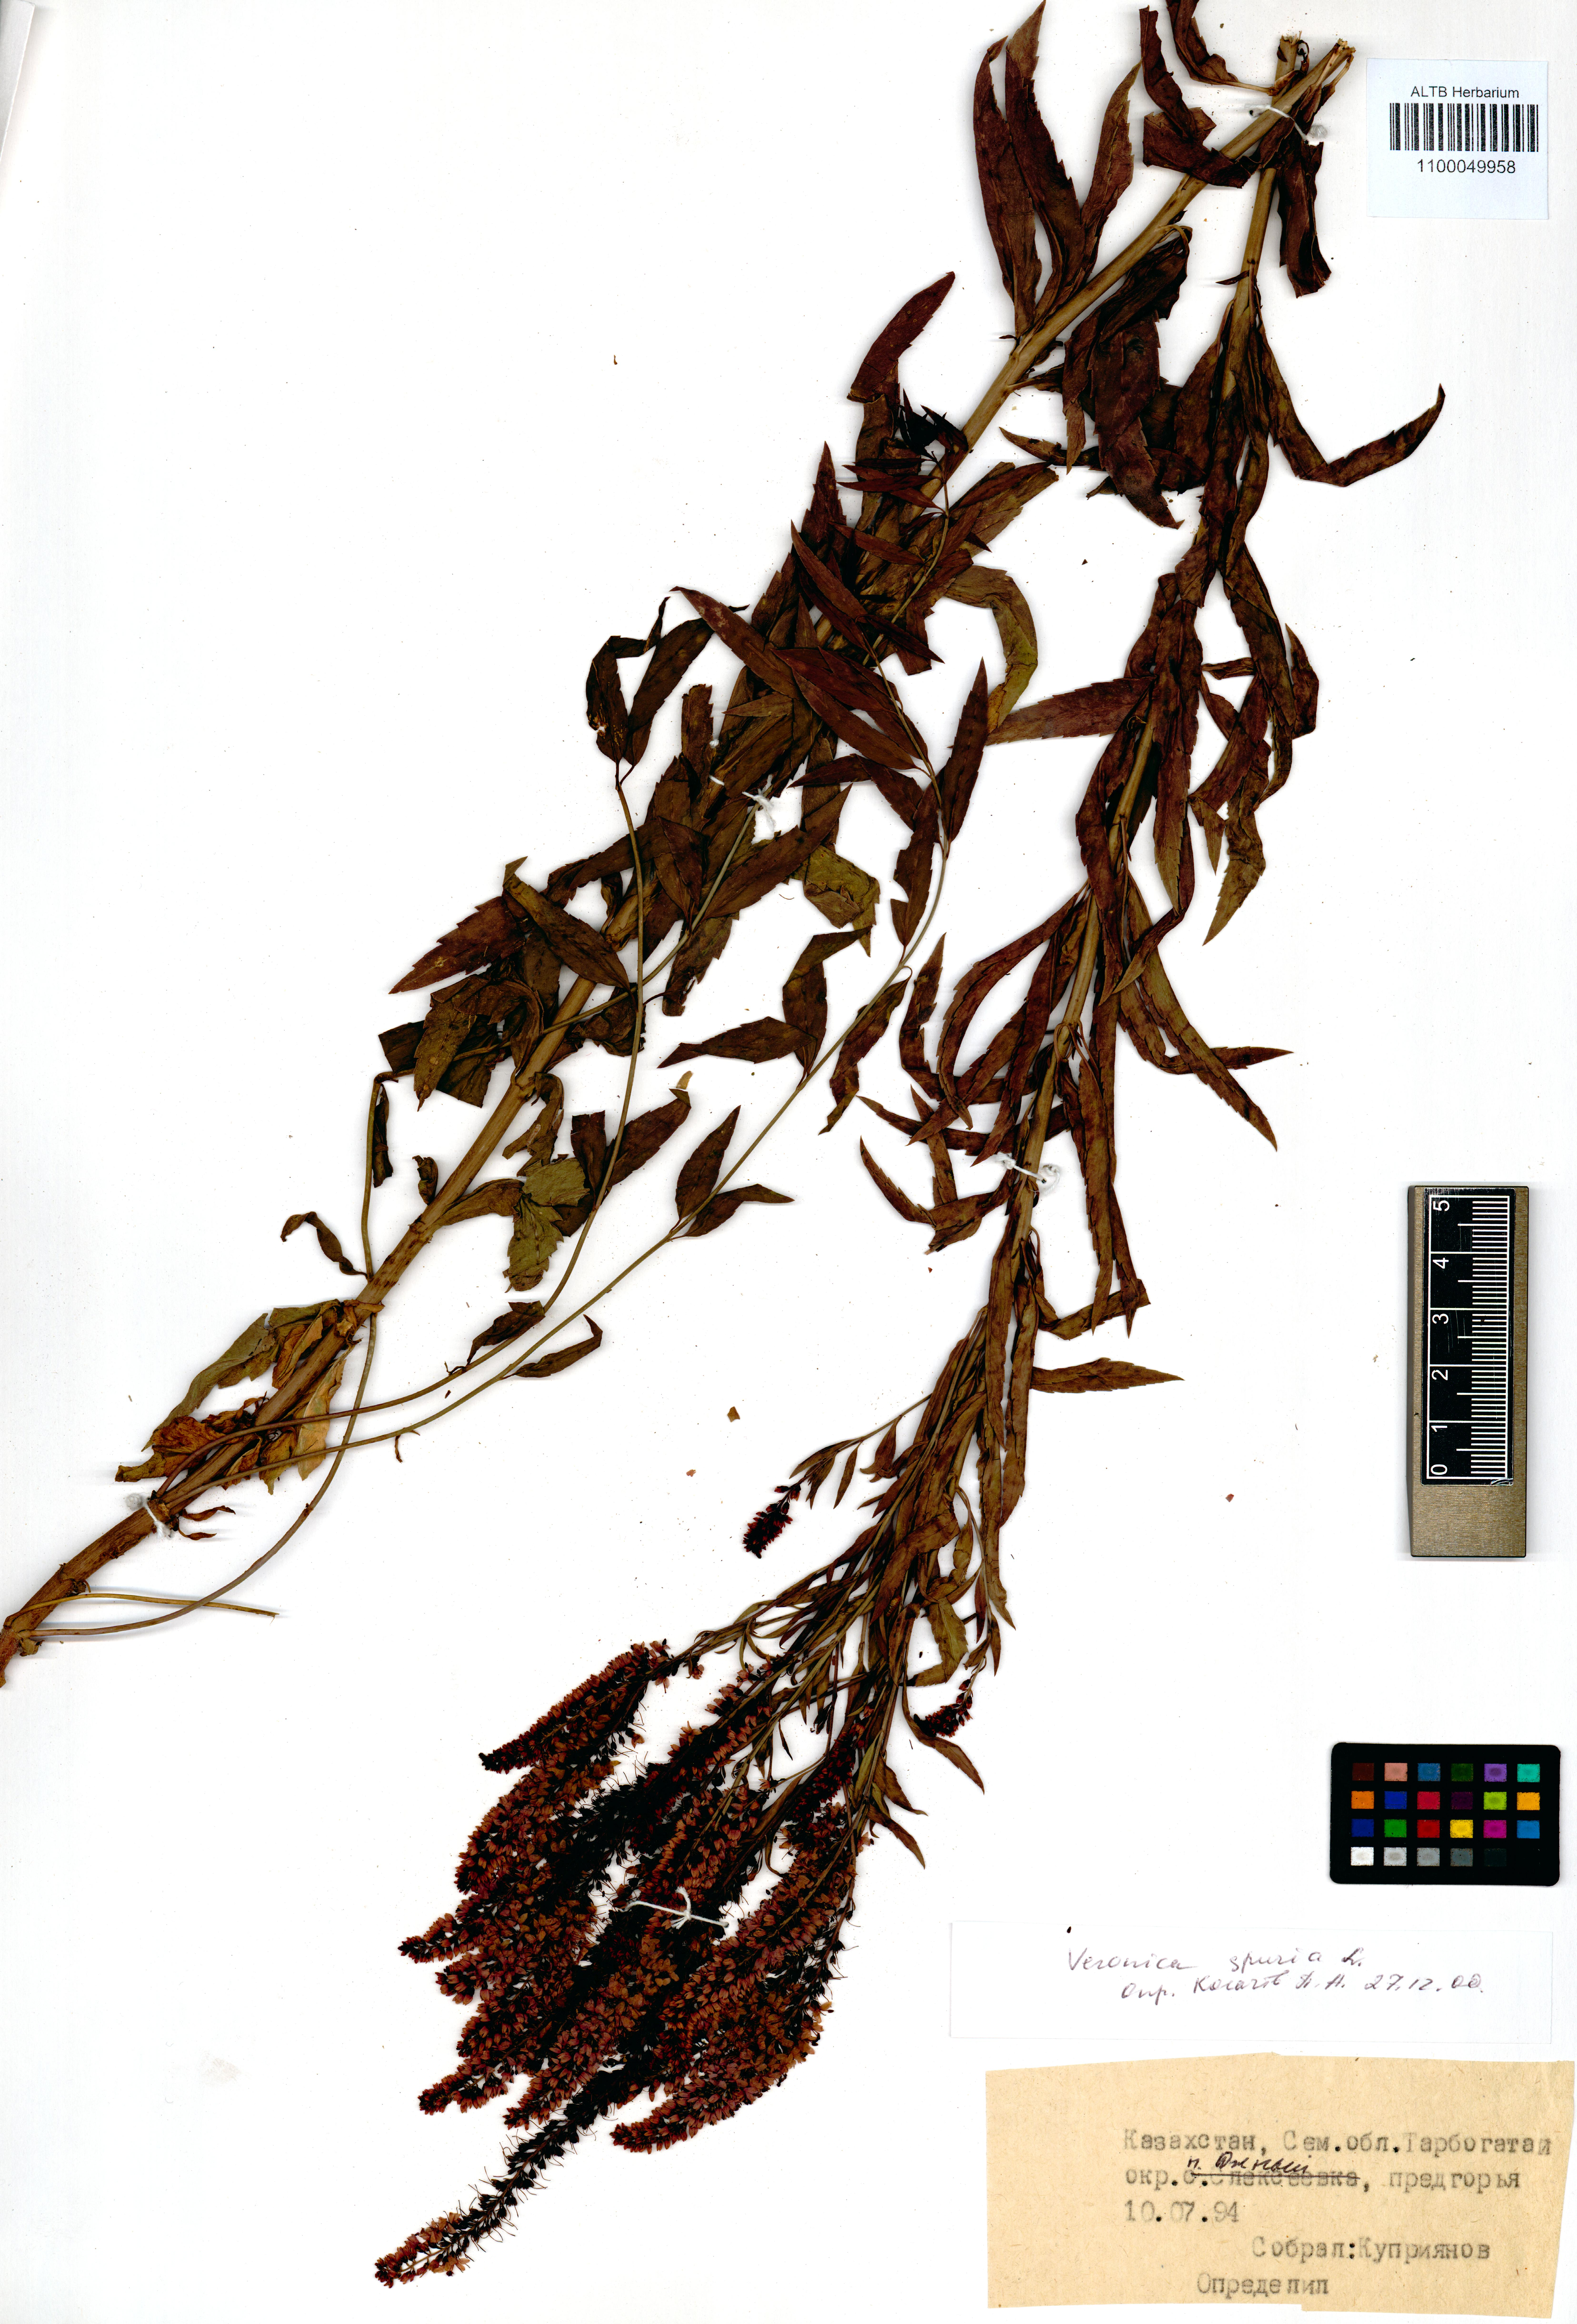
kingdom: Plantae
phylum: Tracheophyta
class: Magnoliopsida
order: Lamiales
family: Plantaginaceae
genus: Veronica
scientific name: Veronica spuria
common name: Bastard speedwell
